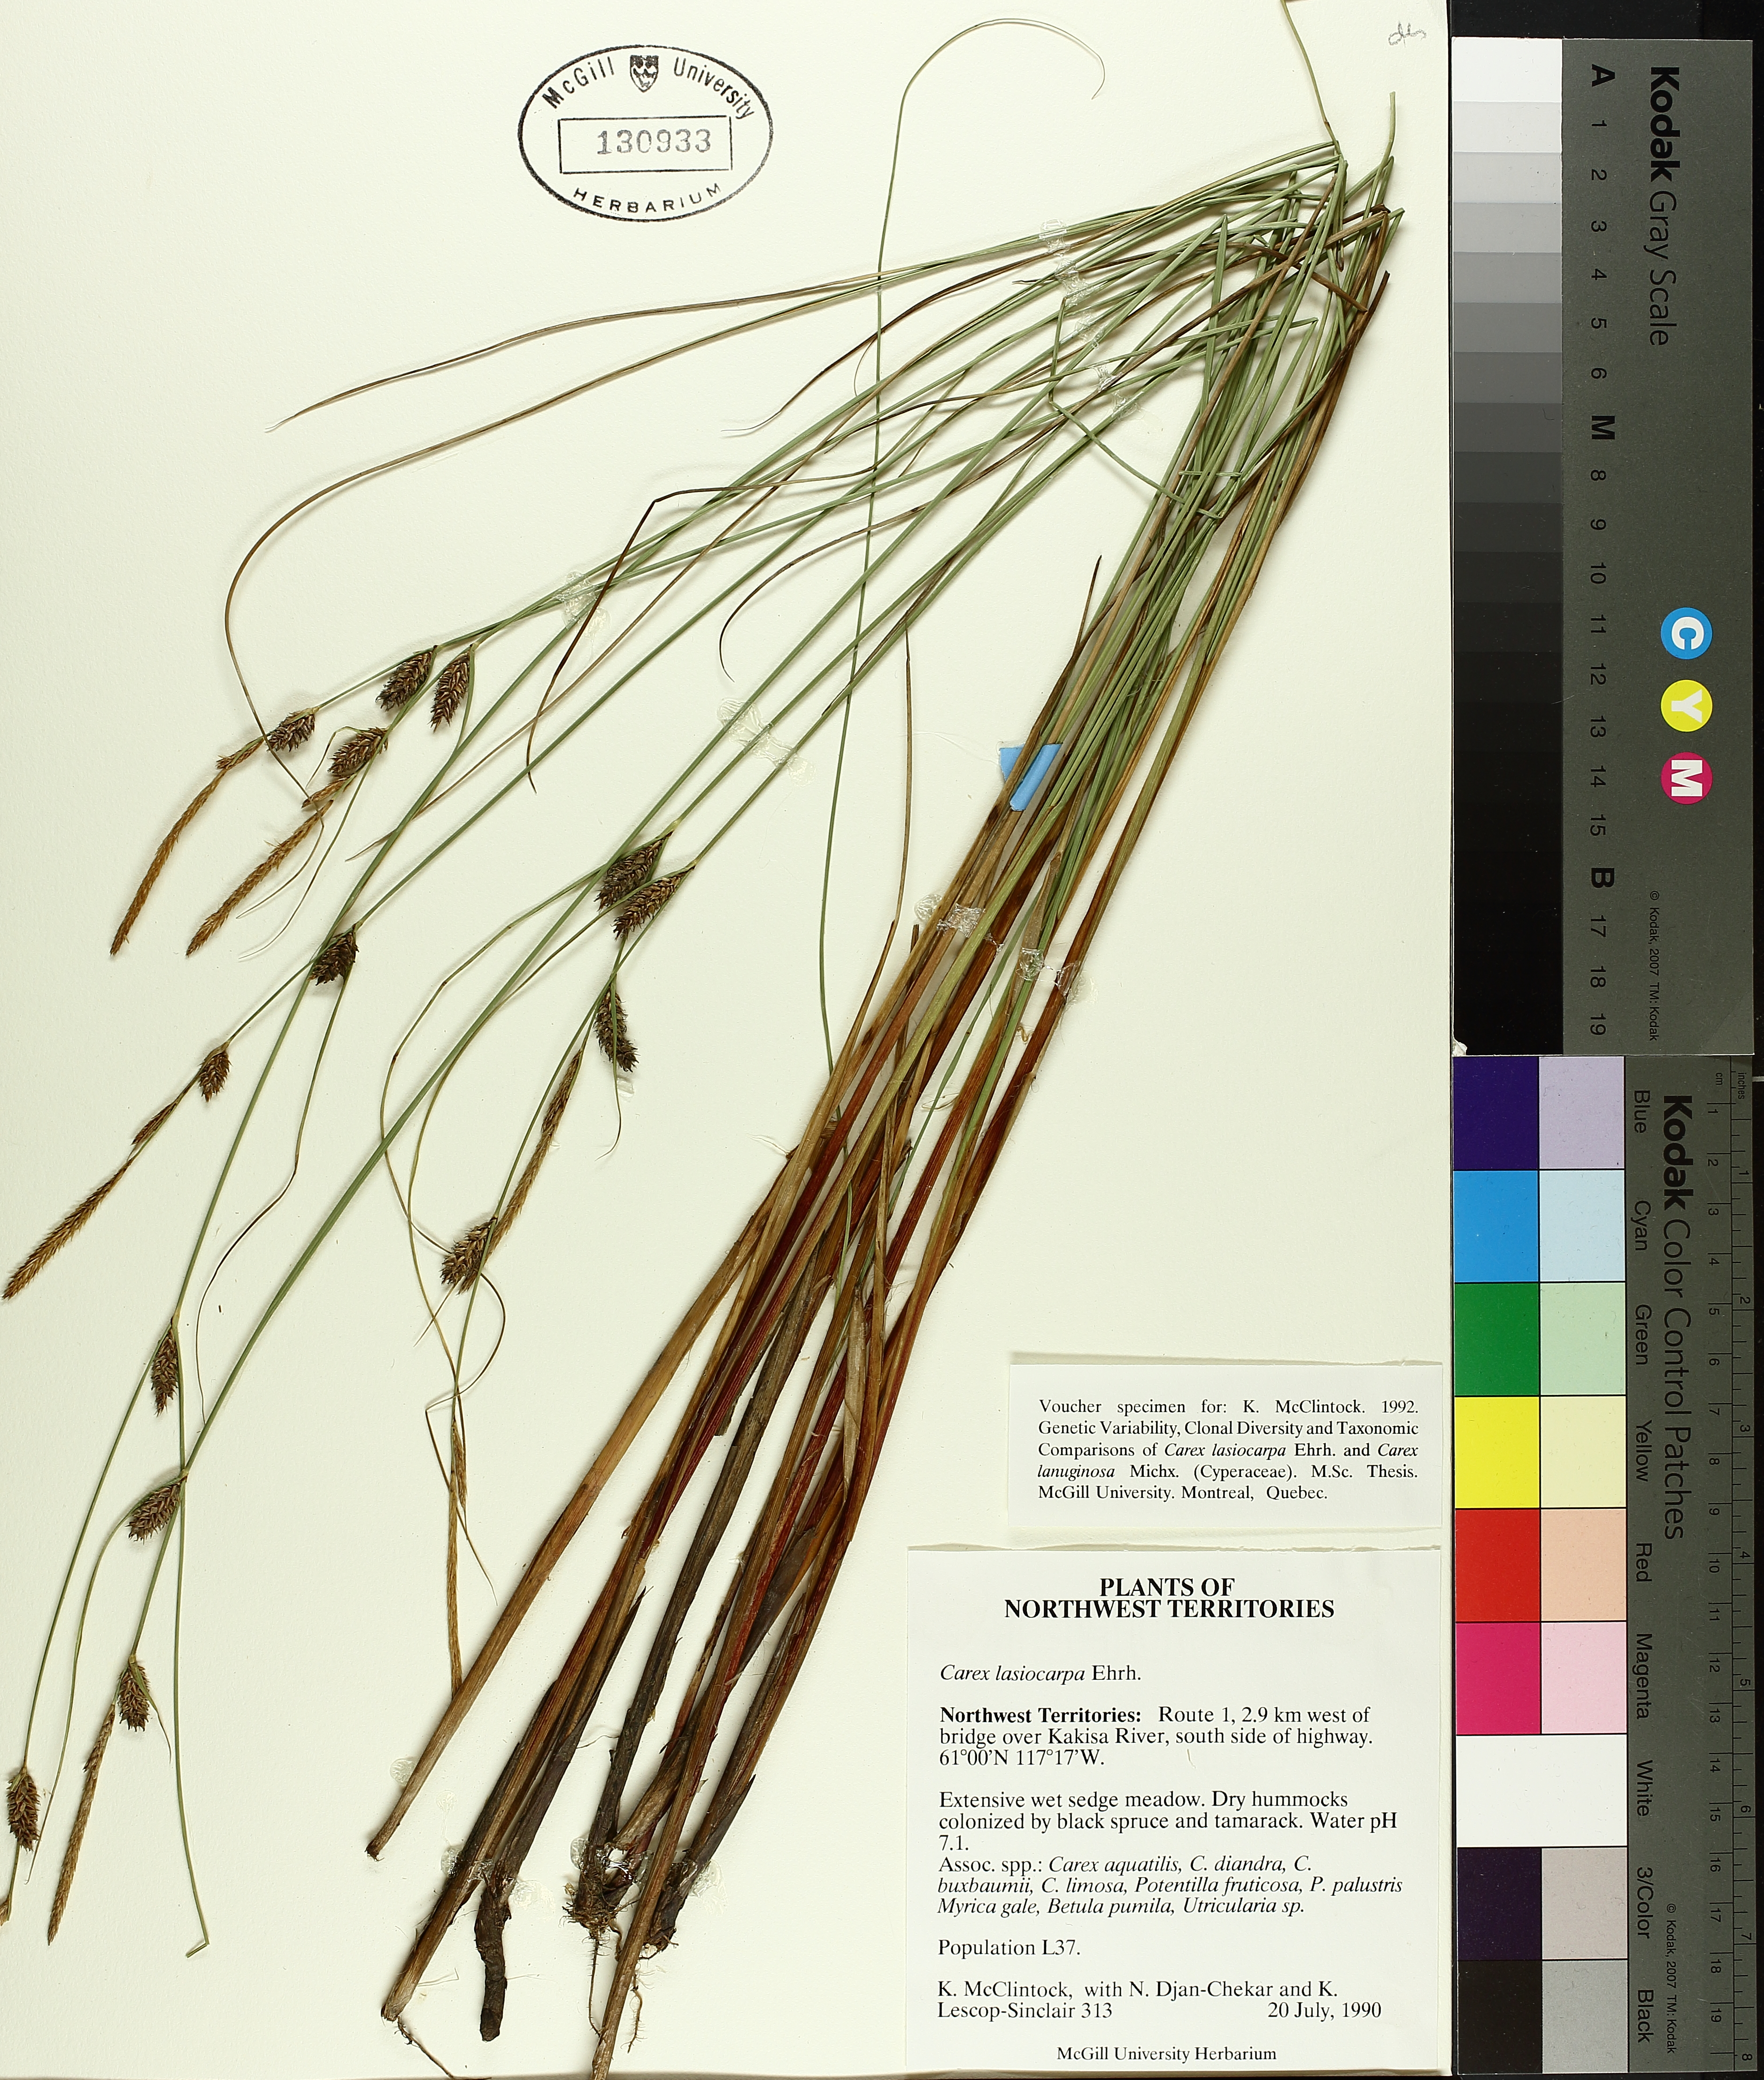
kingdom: Plantae
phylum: Tracheophyta
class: Liliopsida
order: Poales
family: Cyperaceae
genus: Carex
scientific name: Carex lasiocarpa
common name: Slender sedge
